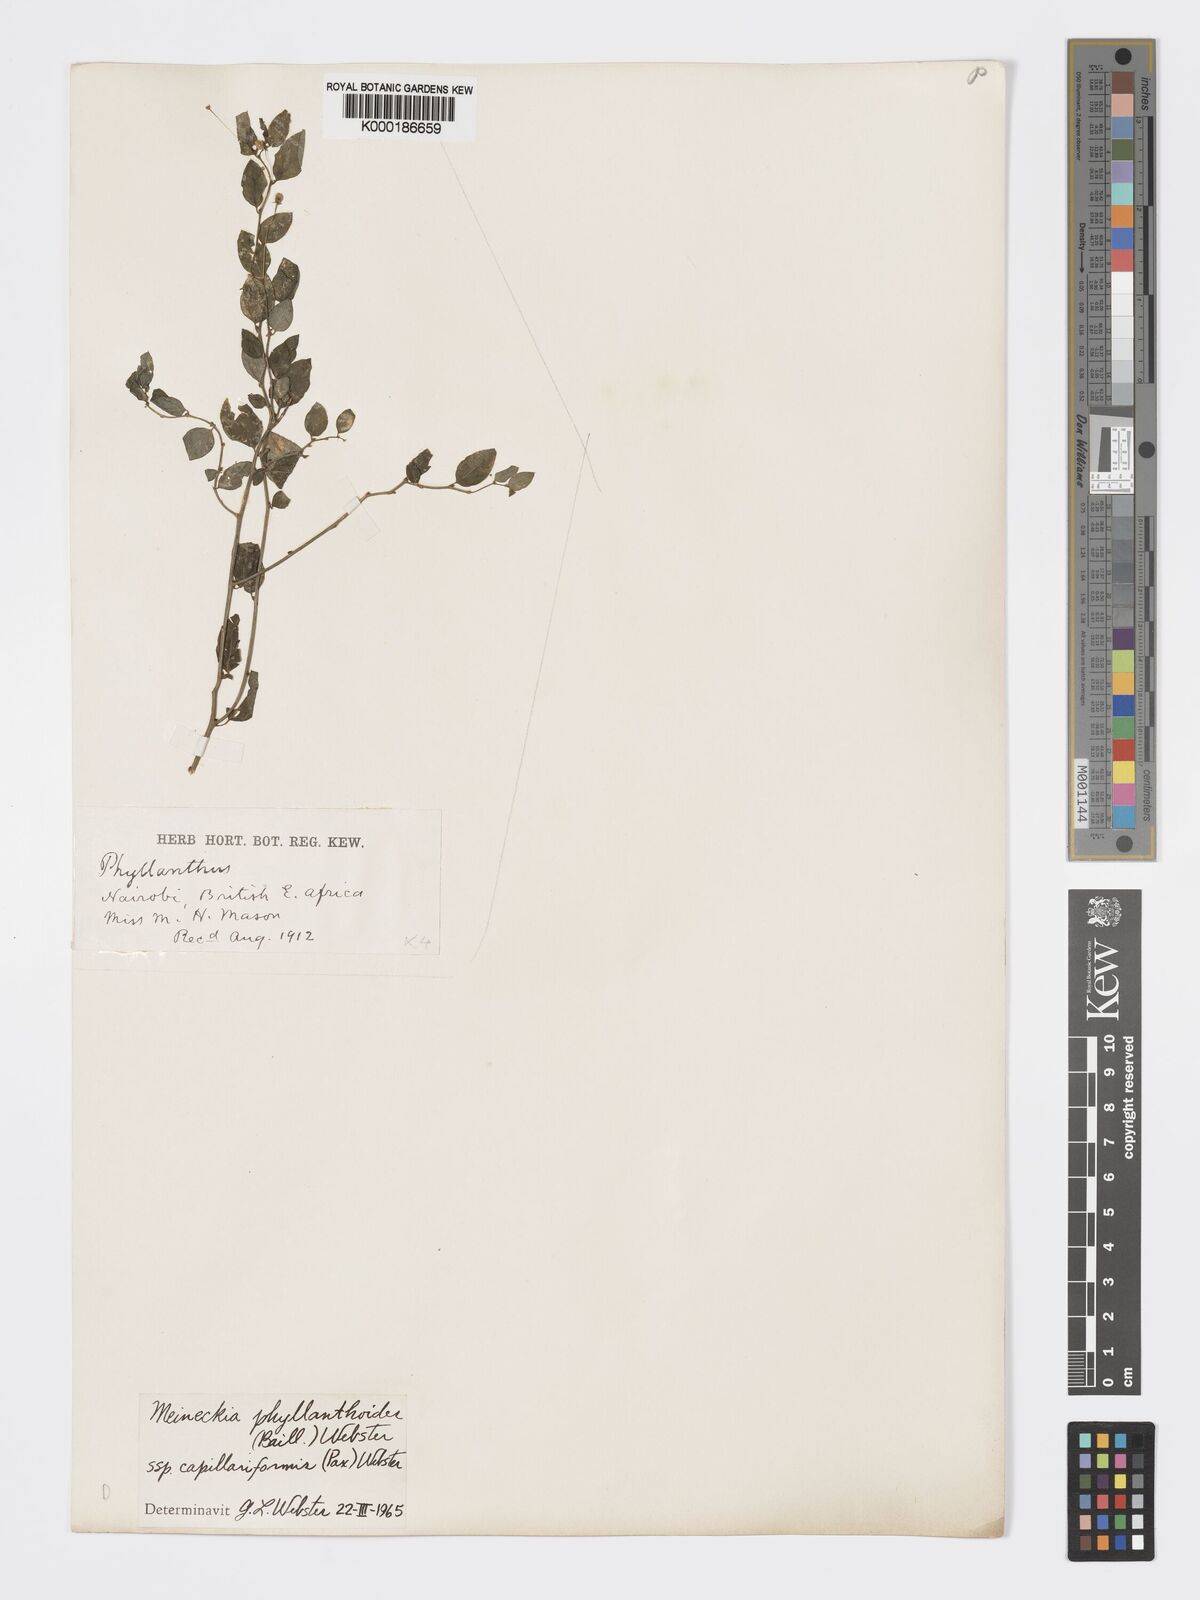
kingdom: Plantae
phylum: Tracheophyta
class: Magnoliopsida
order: Malpighiales
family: Phyllanthaceae
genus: Meineckia
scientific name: Meineckia phyllanthoides
